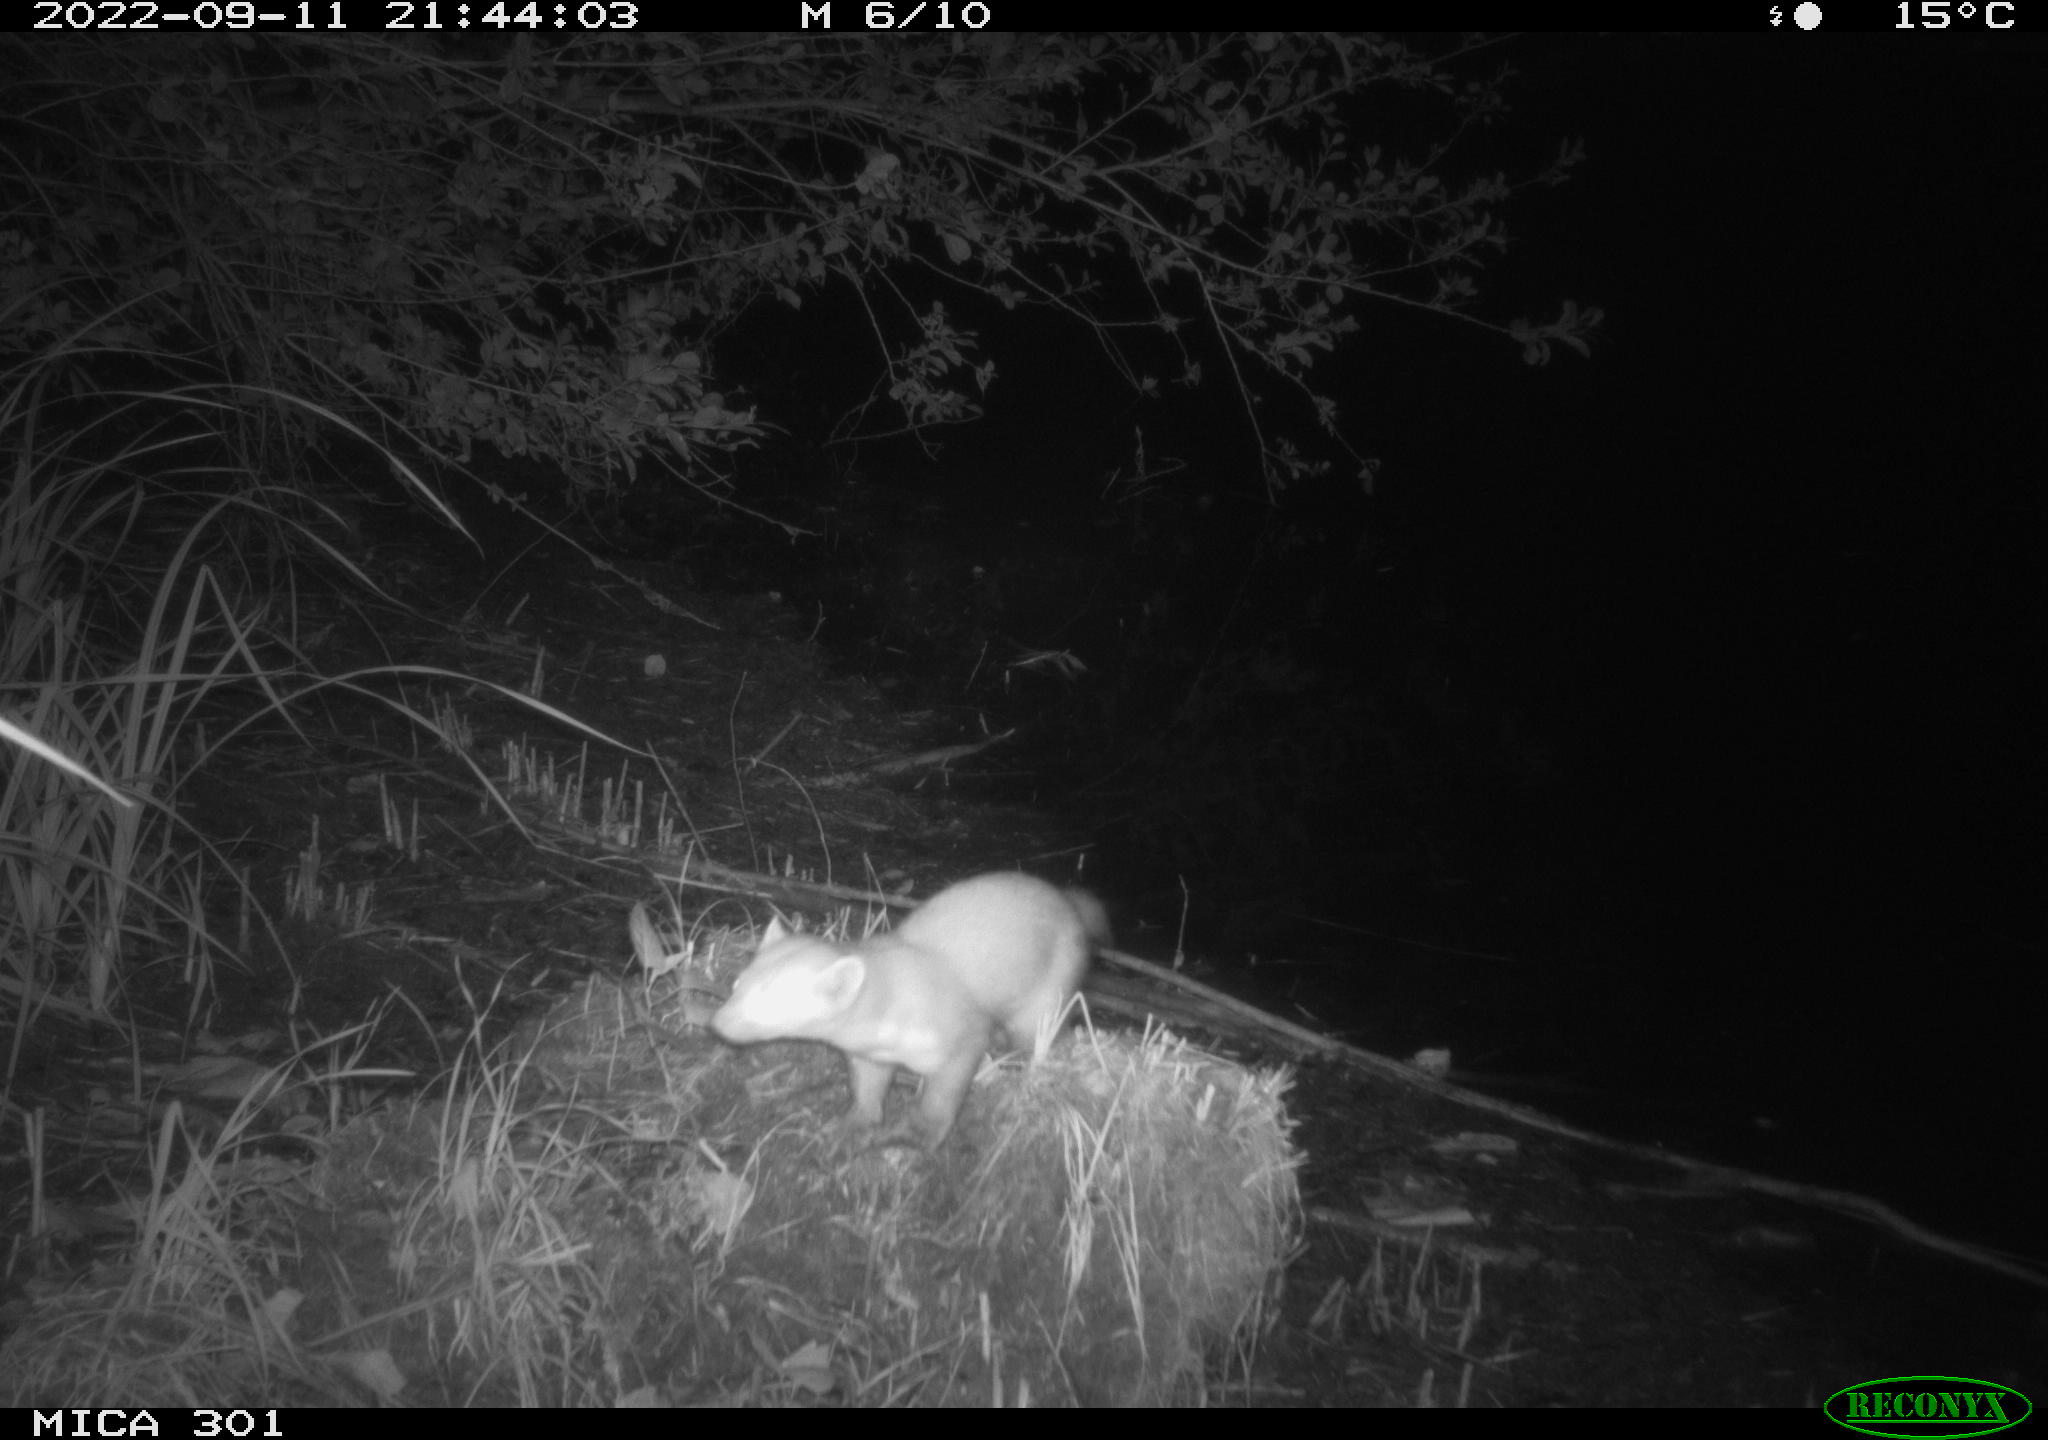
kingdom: Animalia
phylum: Chordata
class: Mammalia
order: Carnivora
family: Mustelidae
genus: Martes
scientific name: Martes foina
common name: Beech marten
